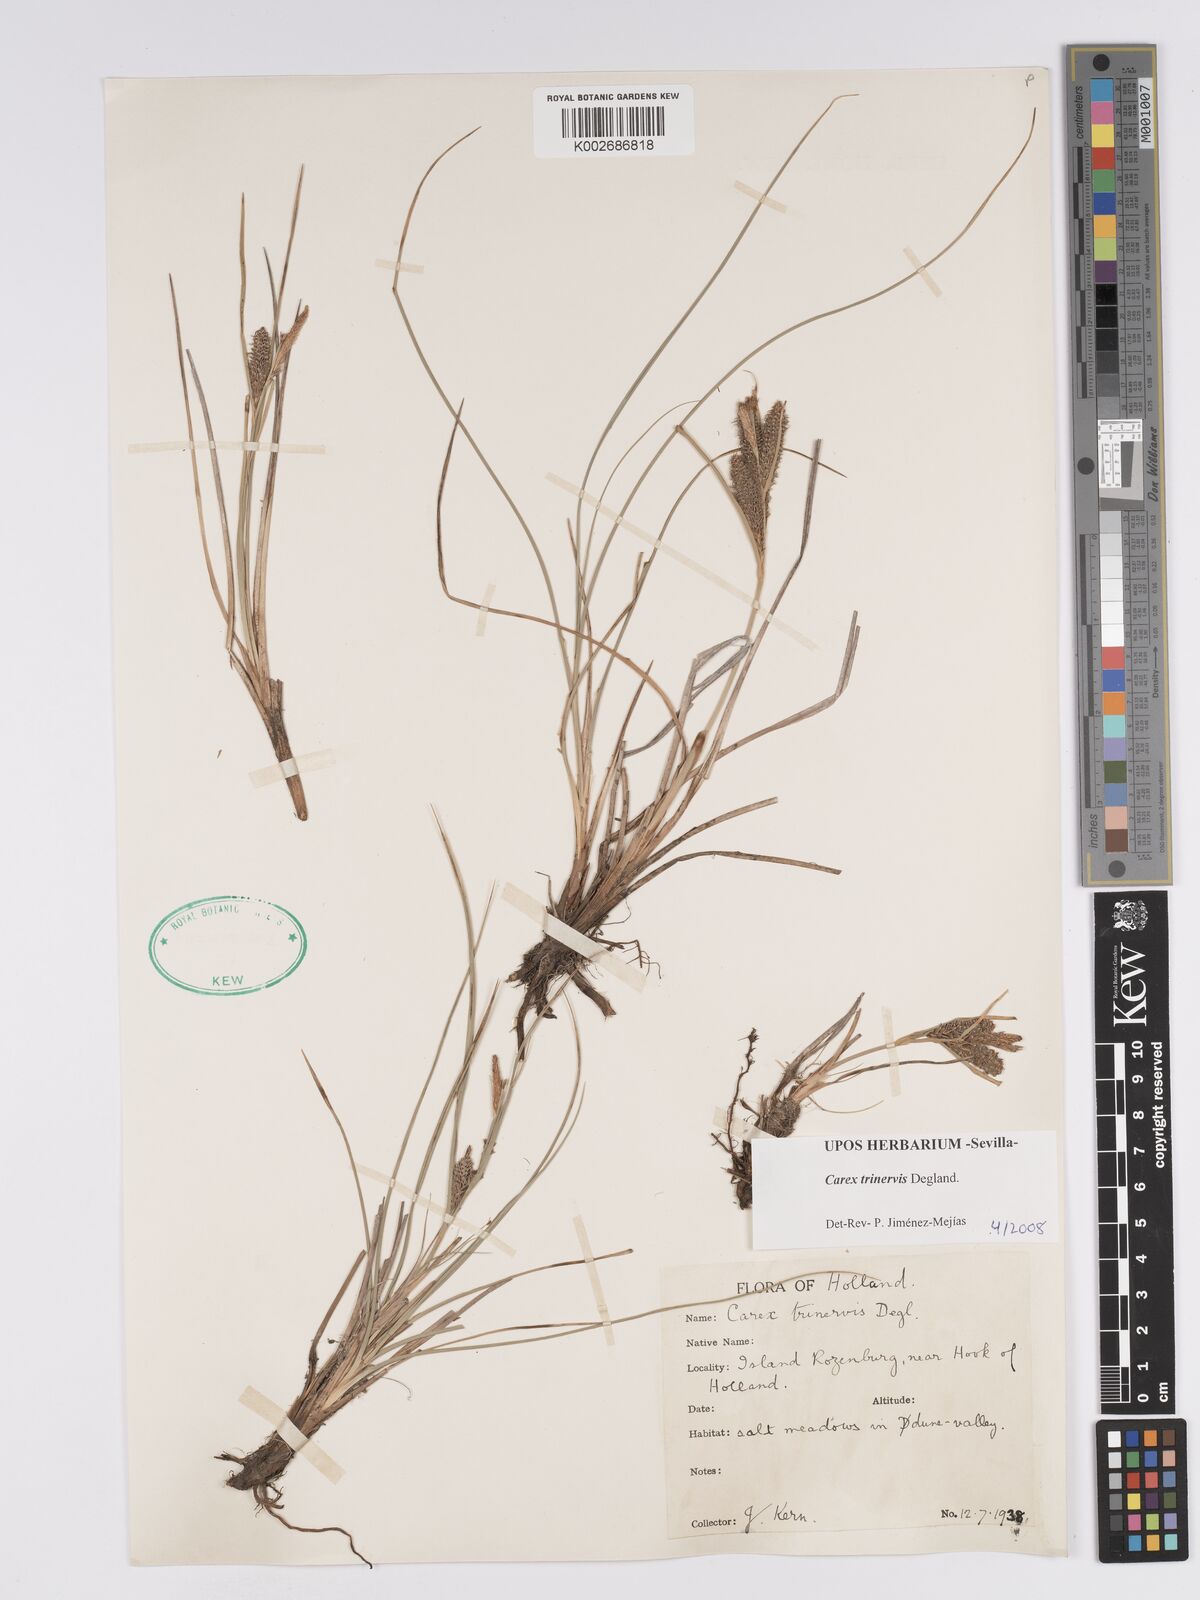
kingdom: Plantae
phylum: Tracheophyta
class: Liliopsida
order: Poales
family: Cyperaceae
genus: Carex
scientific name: Carex trinervis
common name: Three-nerved sedge
